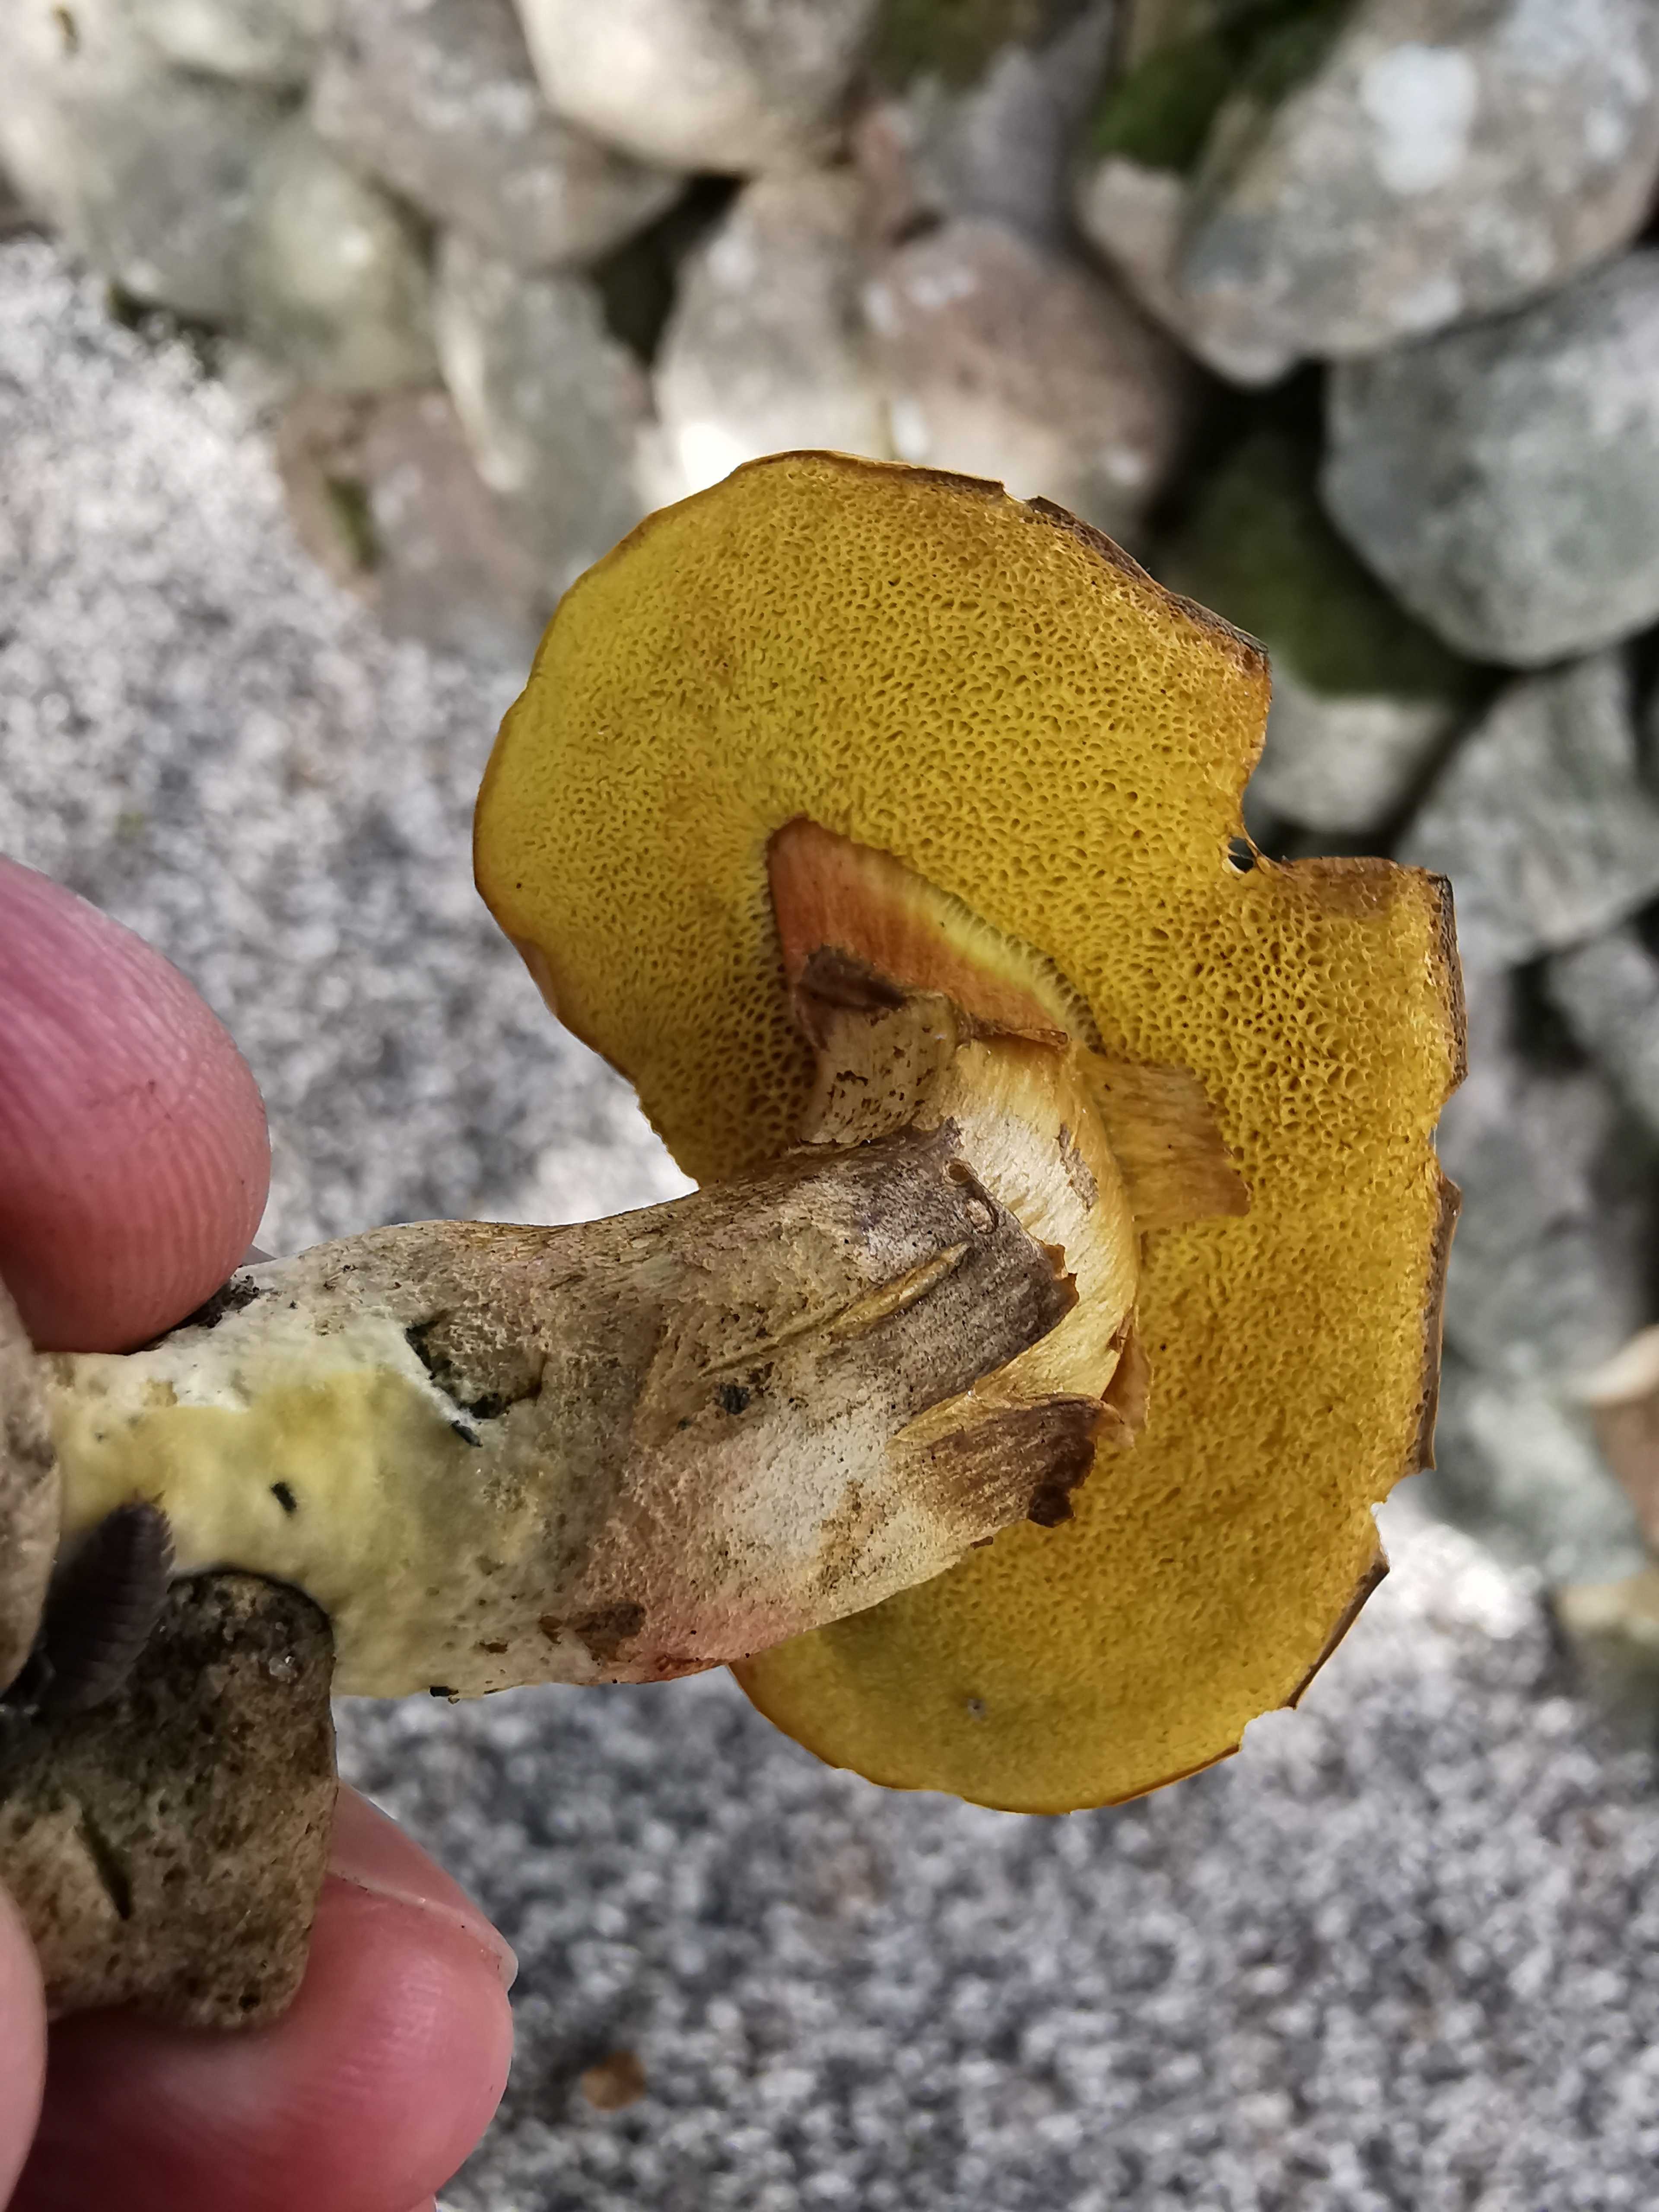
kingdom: Fungi
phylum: Basidiomycota
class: Agaricomycetes
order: Boletales
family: Boletaceae
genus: Hortiboletus
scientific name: Hortiboletus bubalinus
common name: aurora-rørhat
